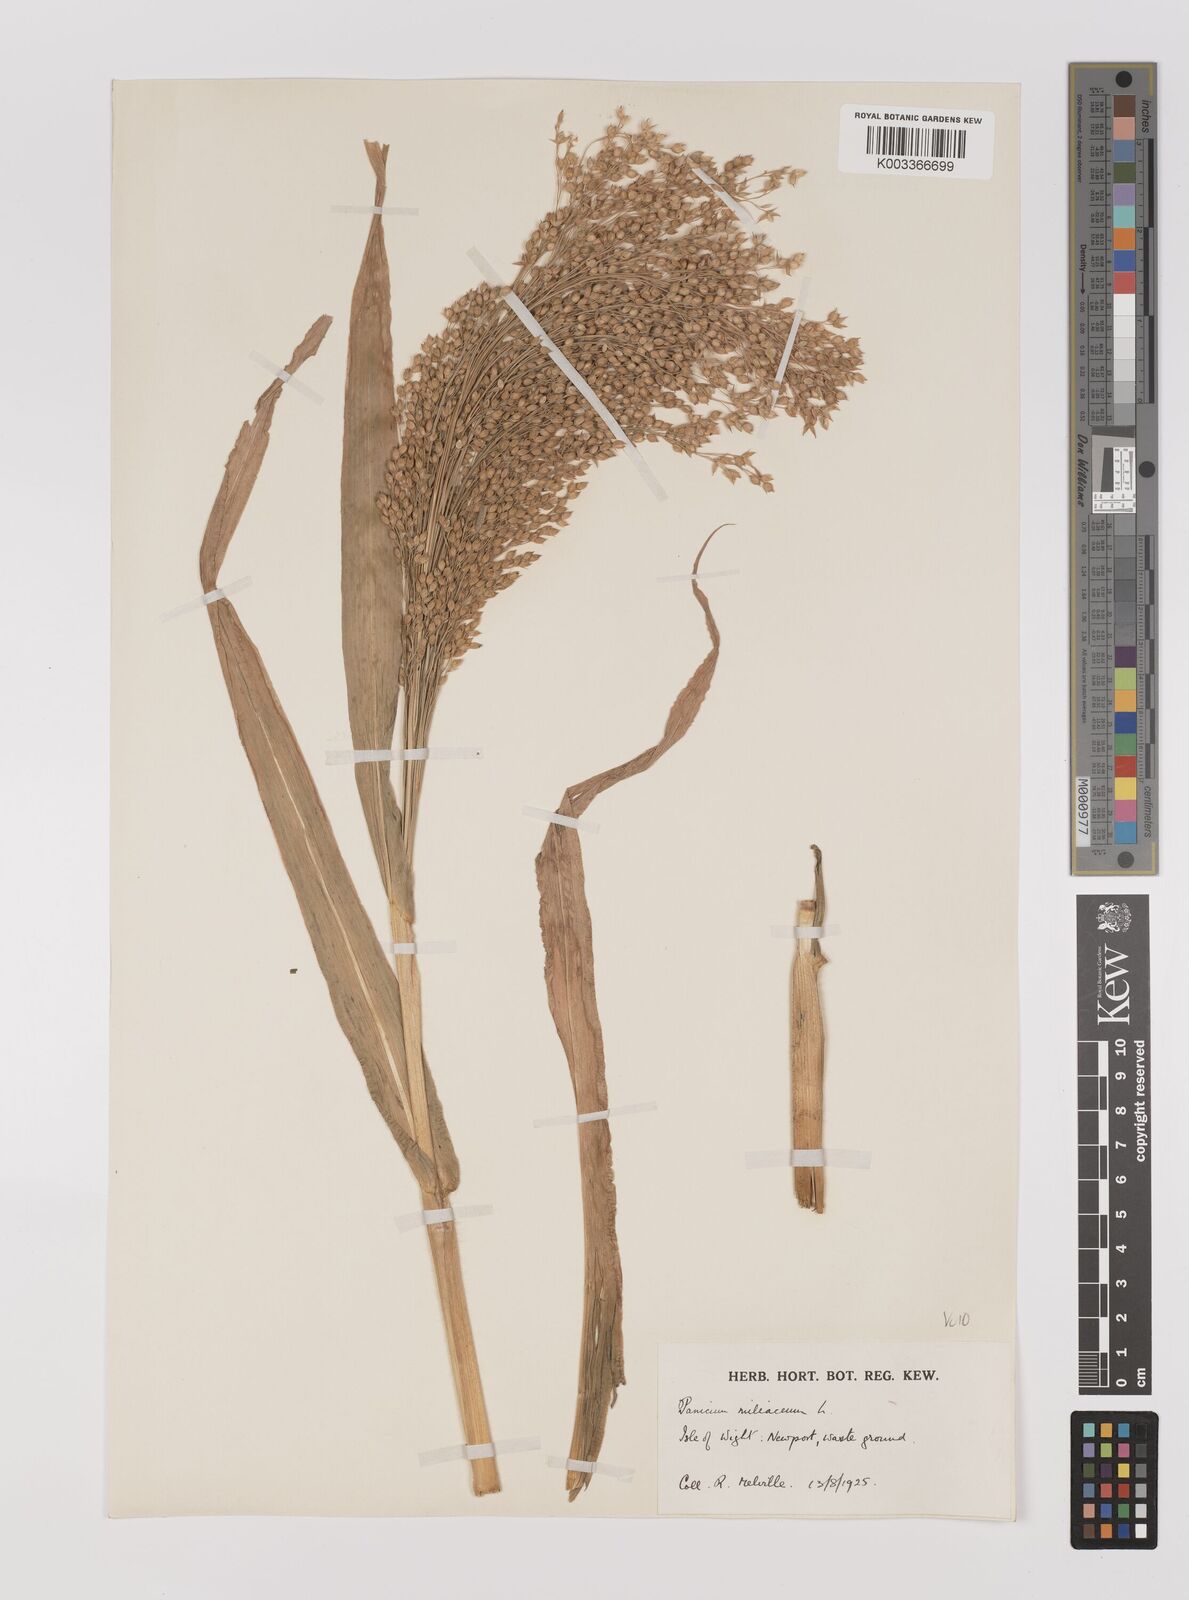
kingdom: Plantae
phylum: Tracheophyta
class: Liliopsida
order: Poales
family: Poaceae
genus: Panicum
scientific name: Panicum miliaceum
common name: Common millet
